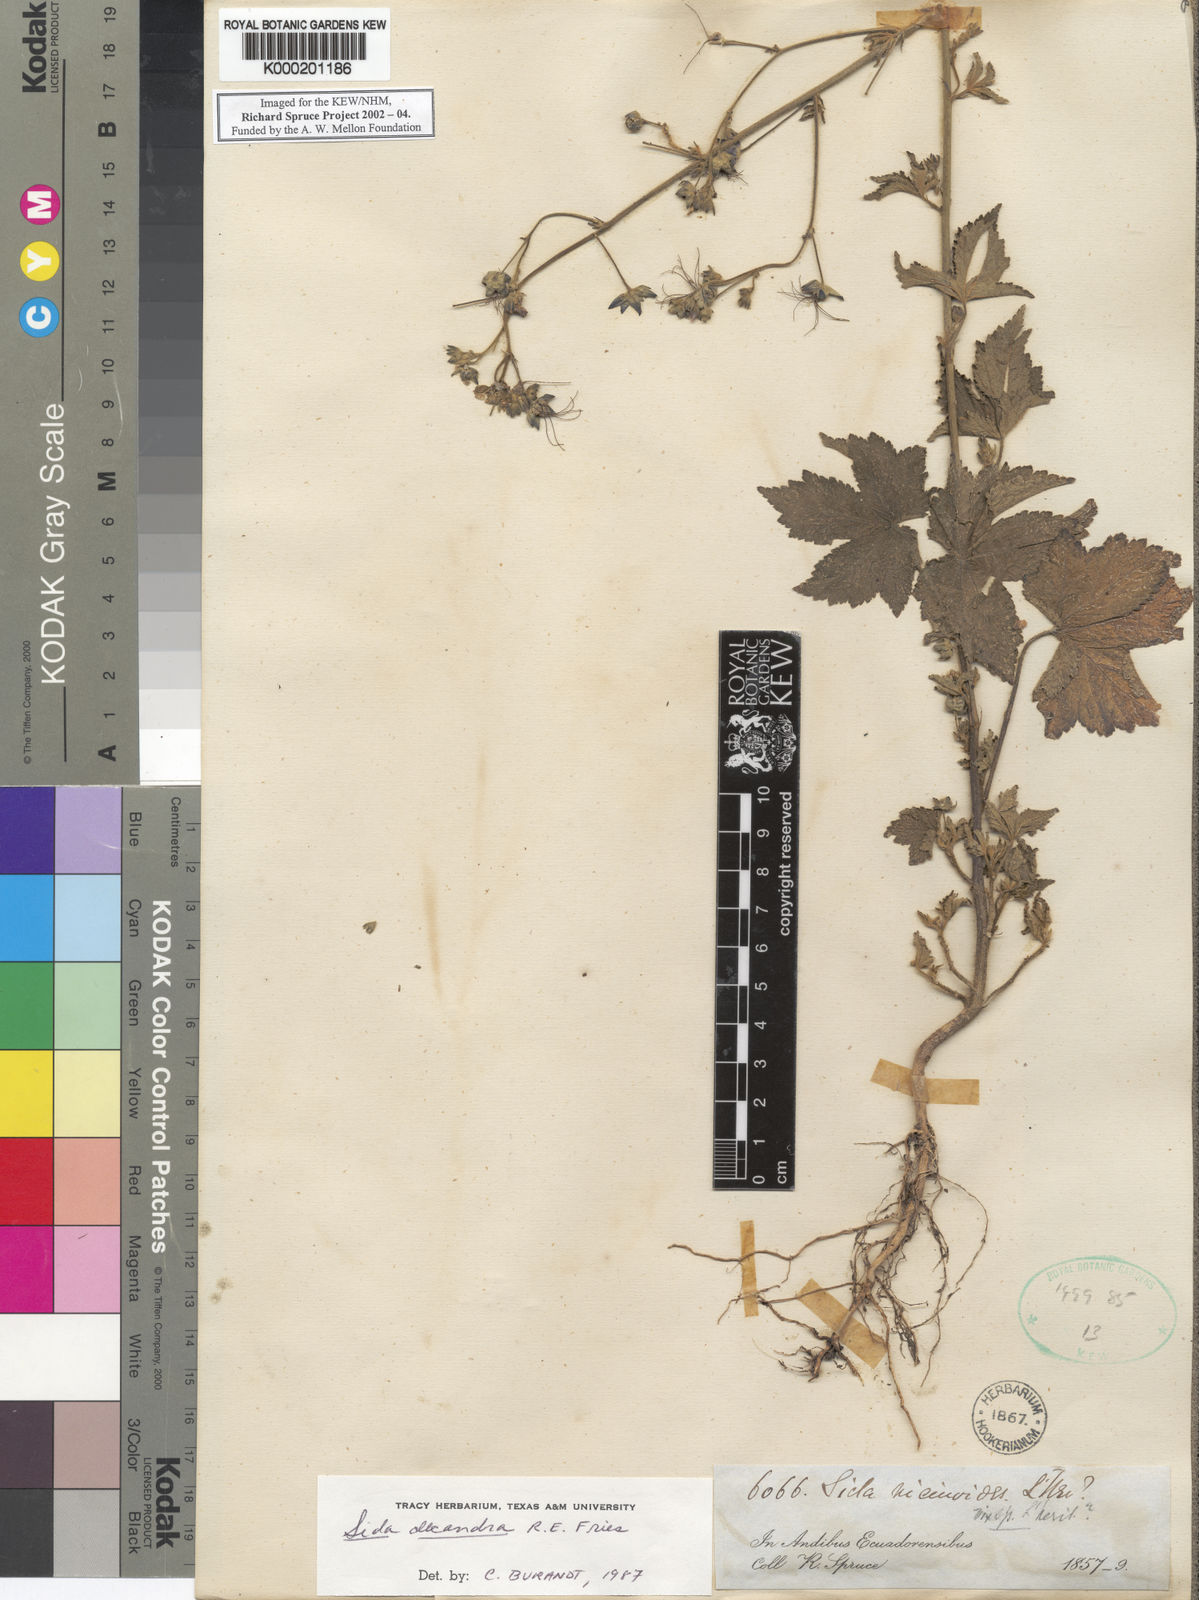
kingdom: Plantae
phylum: Tracheophyta
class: Magnoliopsida
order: Malvales
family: Malvaceae
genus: Sida
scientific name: Sida decandra
